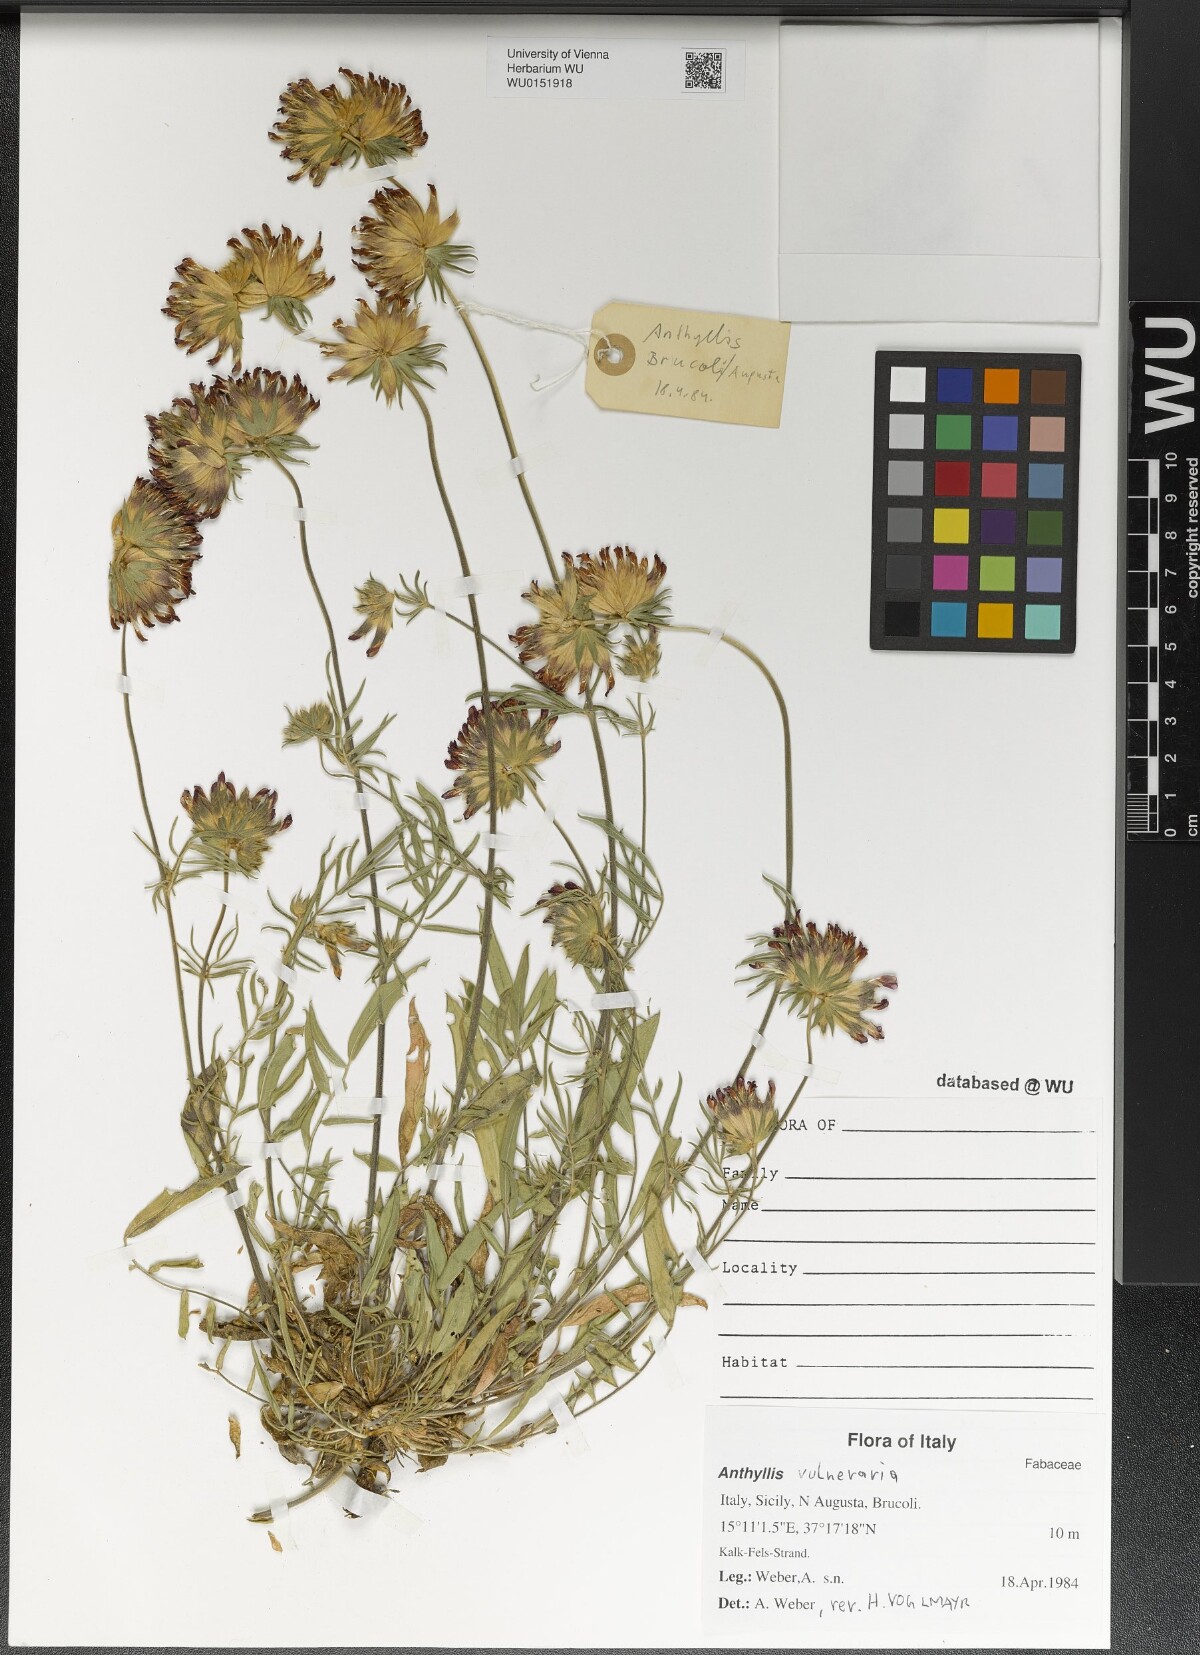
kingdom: Plantae
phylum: Tracheophyta
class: Magnoliopsida
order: Fabales
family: Fabaceae
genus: Anthyllis
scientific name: Anthyllis vulneraria
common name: Kidney vetch
